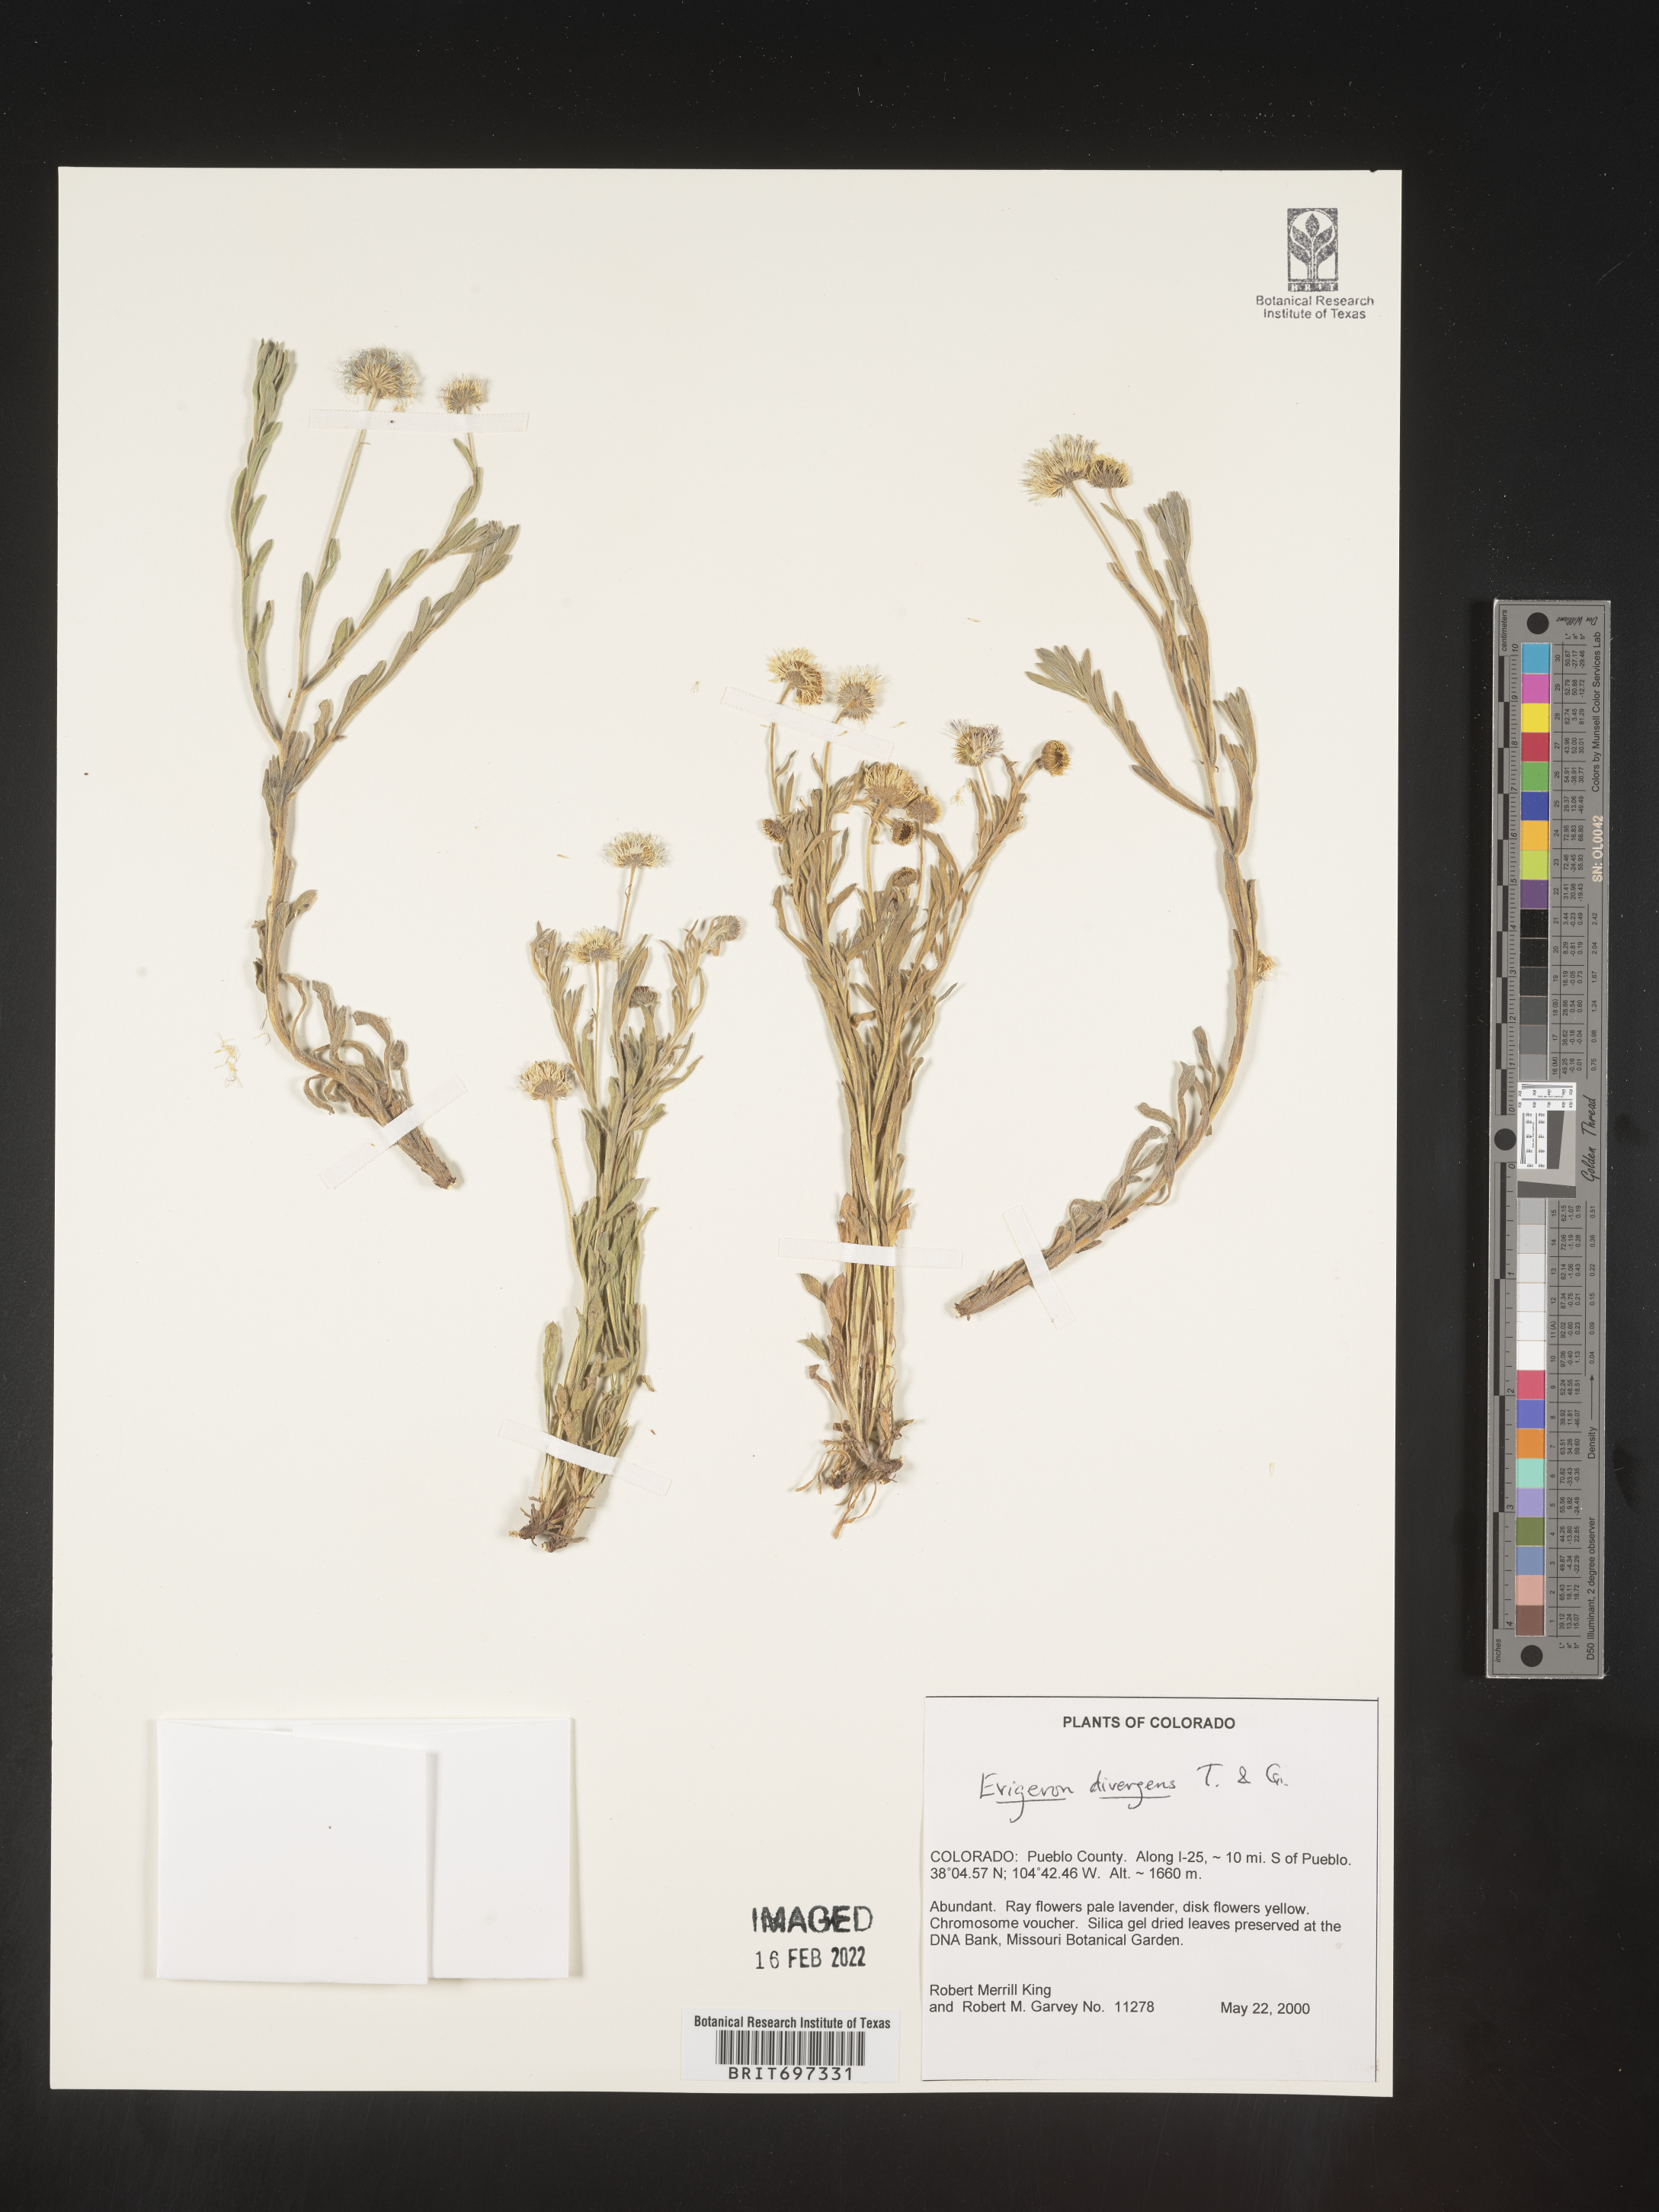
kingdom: Plantae
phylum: Tracheophyta
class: Magnoliopsida
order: Asterales
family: Asteraceae
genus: Erigeron
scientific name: Erigeron divergens
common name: Diffuse fleabane
